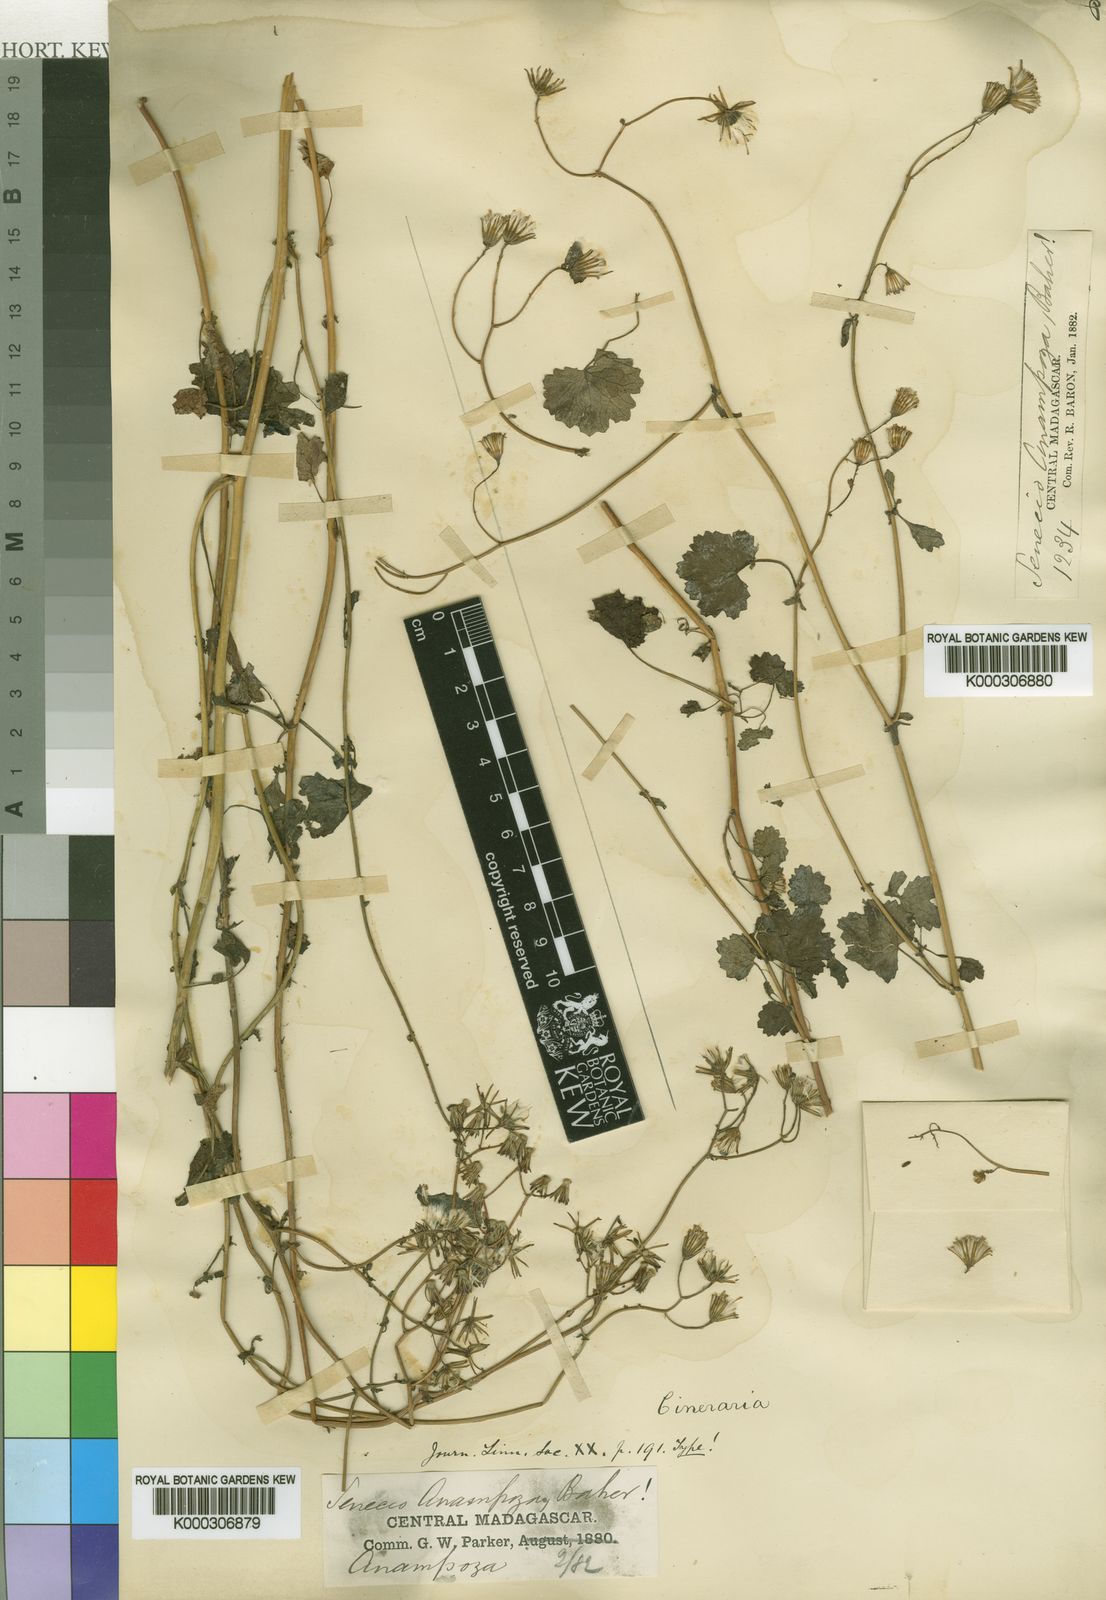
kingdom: Plantae
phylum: Tracheophyta
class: Magnoliopsida
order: Asterales
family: Asteraceae
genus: Cineraria
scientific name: Cineraria anampoza
